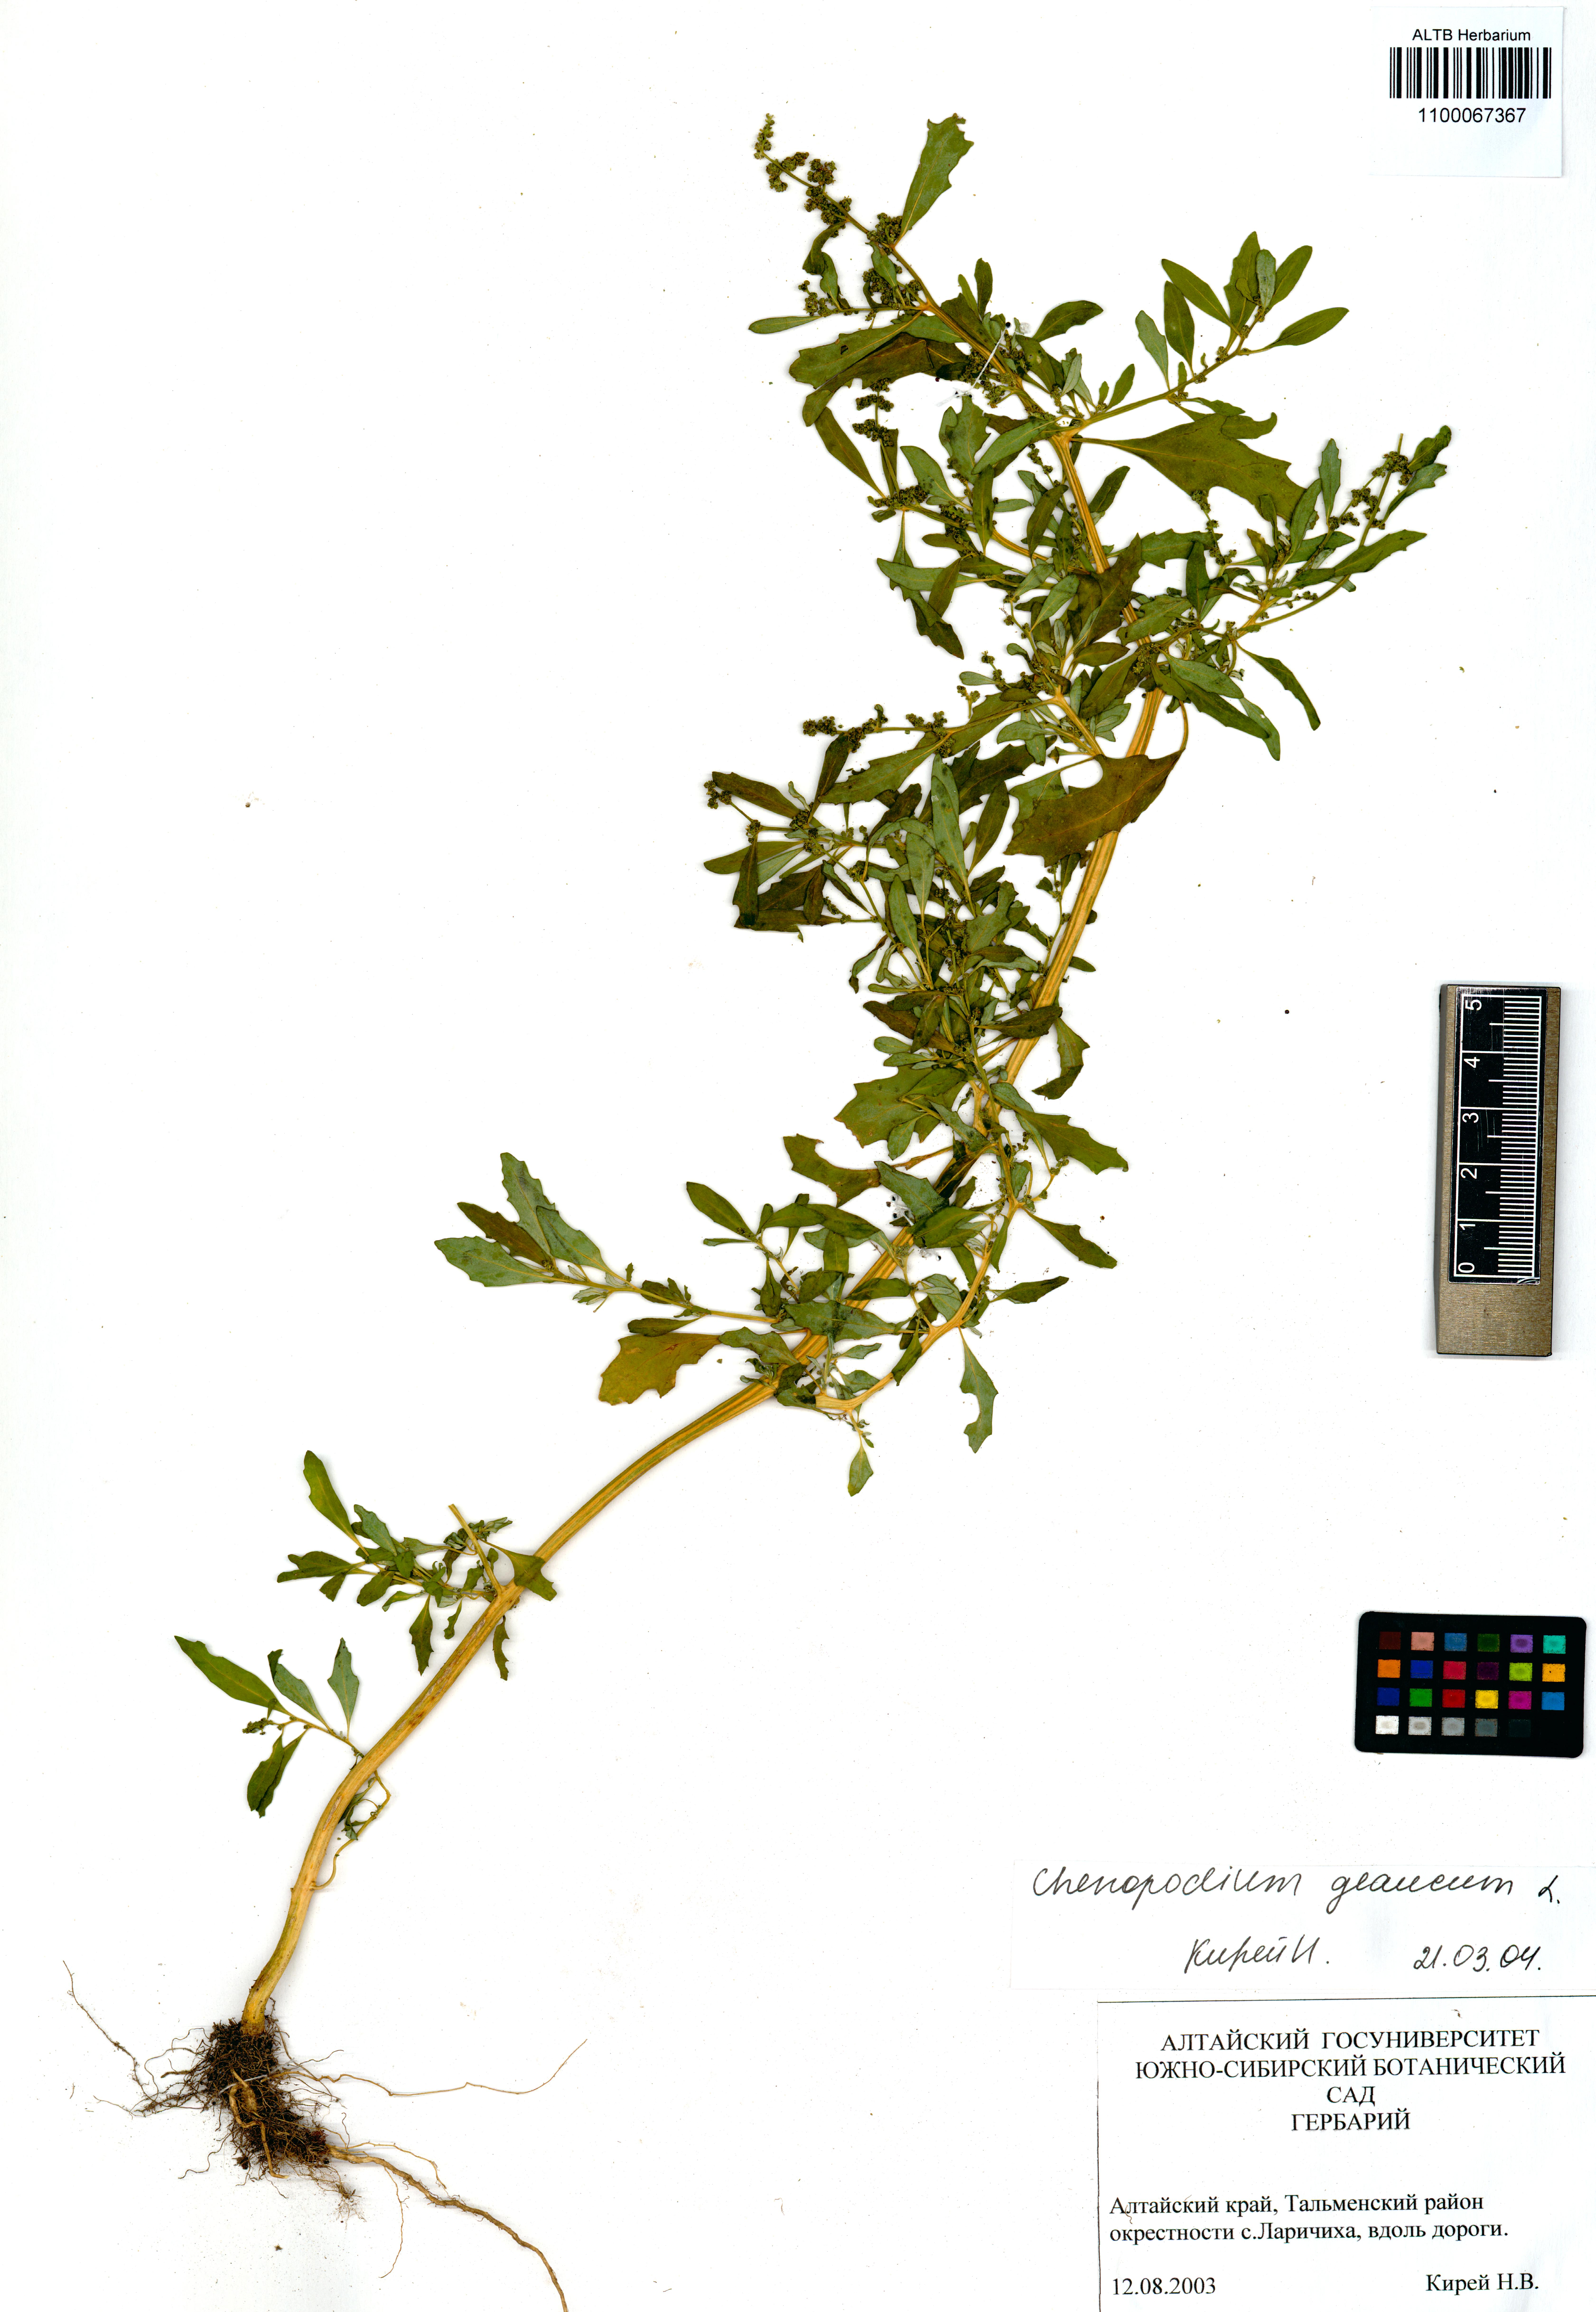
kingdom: Plantae
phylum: Tracheophyta
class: Magnoliopsida
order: Caryophyllales
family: Amaranthaceae
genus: Oxybasis
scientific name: Oxybasis glauca
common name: Glaucous goosefoot
